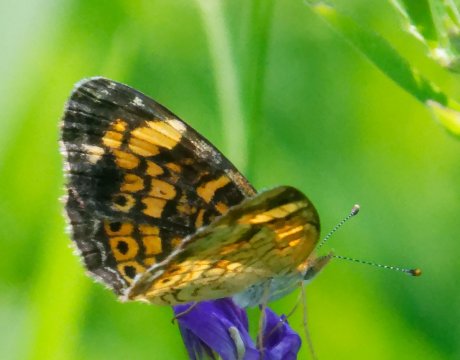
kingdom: Animalia
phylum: Arthropoda
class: Insecta
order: Lepidoptera
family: Nymphalidae
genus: Phyciodes
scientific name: Phyciodes tharos
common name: Pearl Crescent
